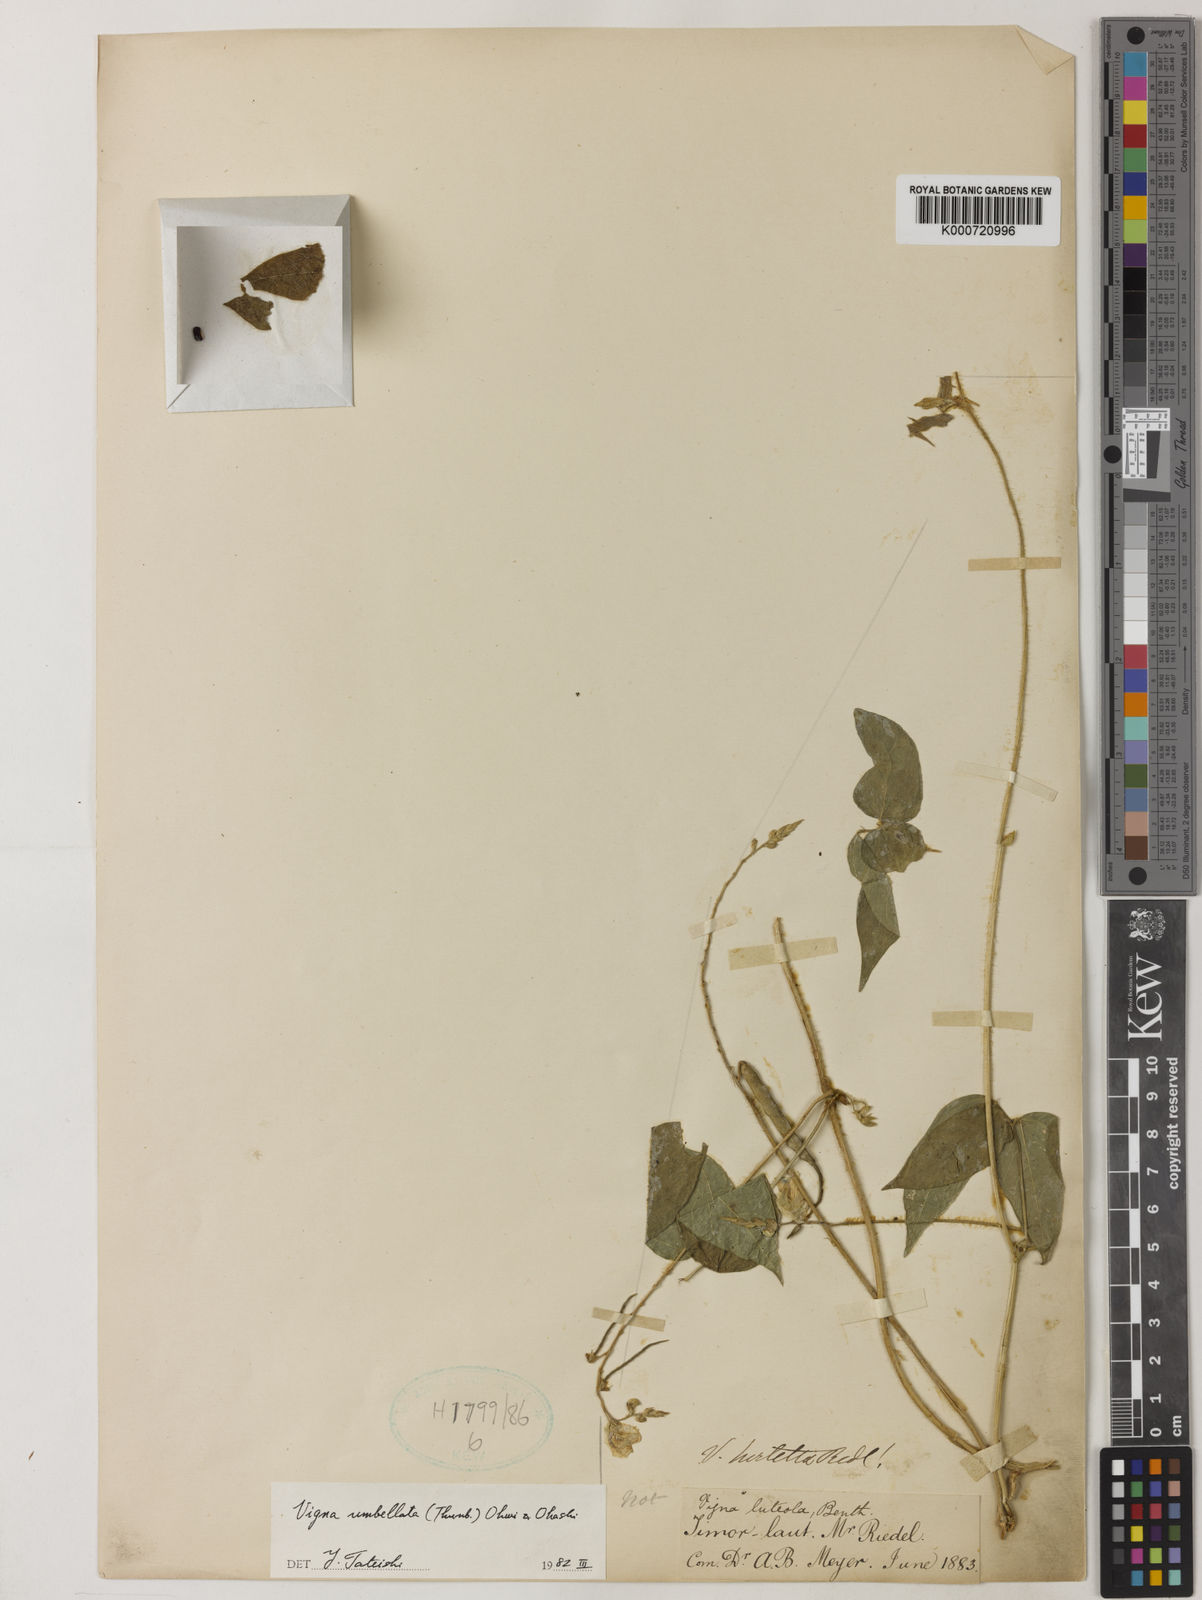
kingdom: Plantae
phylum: Tracheophyta
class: Magnoliopsida
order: Fabales
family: Fabaceae
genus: Vigna
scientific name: Vigna umbellata
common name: Oriental-bean
